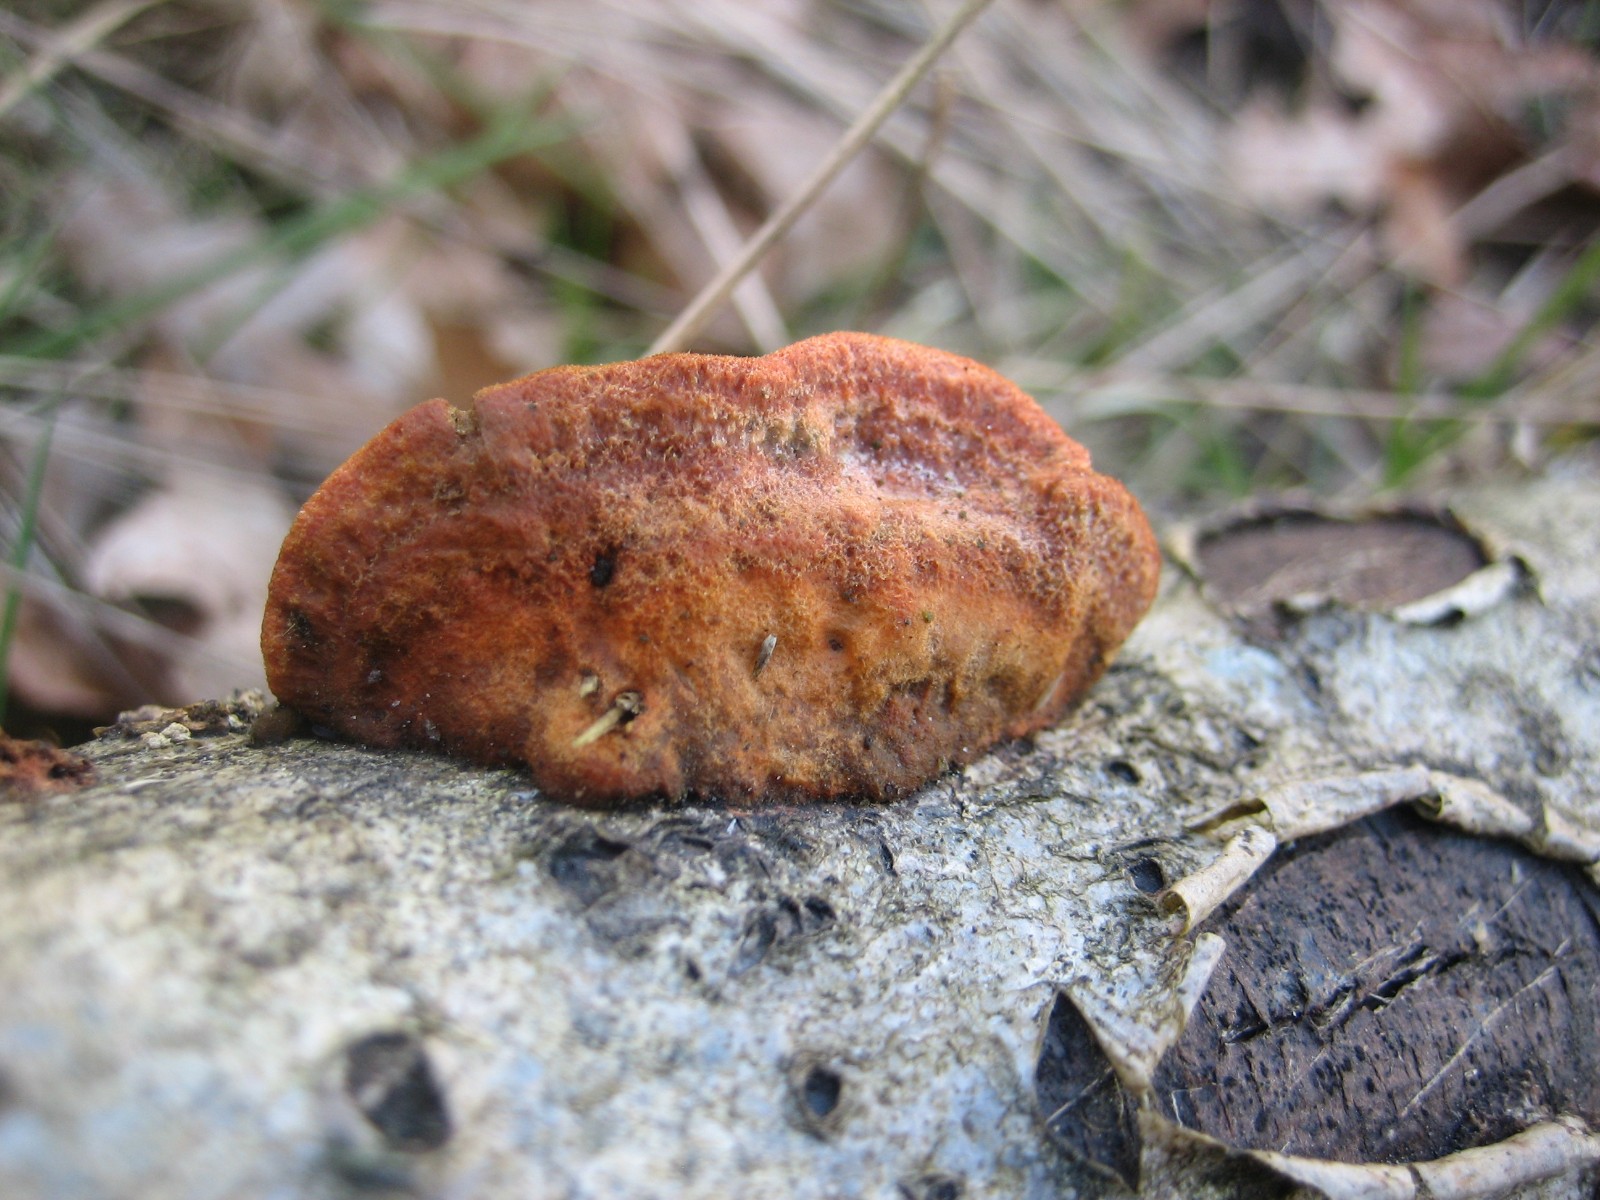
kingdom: Fungi
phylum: Basidiomycota
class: Agaricomycetes
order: Polyporales
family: Polyporaceae
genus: Trametes
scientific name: Trametes cinnabarina
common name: cinnoberporesvamp
